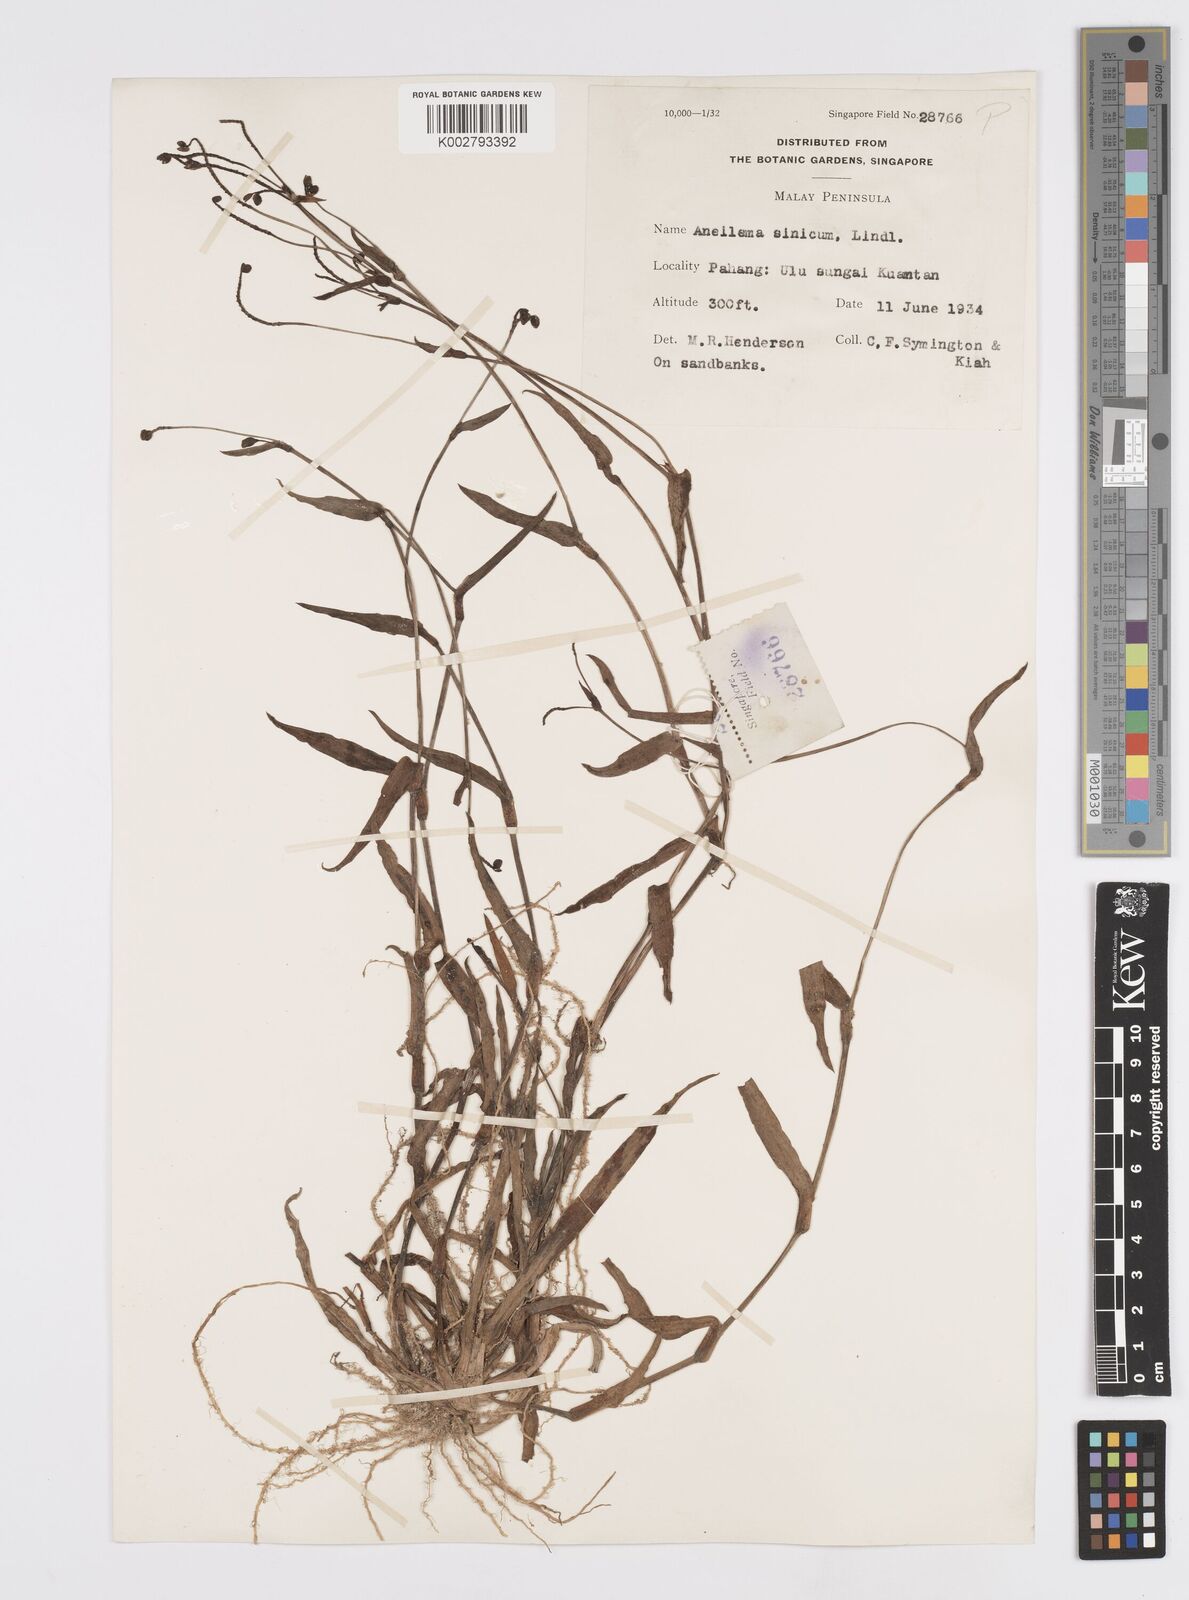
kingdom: Plantae
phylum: Tracheophyta
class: Liliopsida
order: Commelinales
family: Commelinaceae
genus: Murdannia
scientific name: Murdannia simplex
